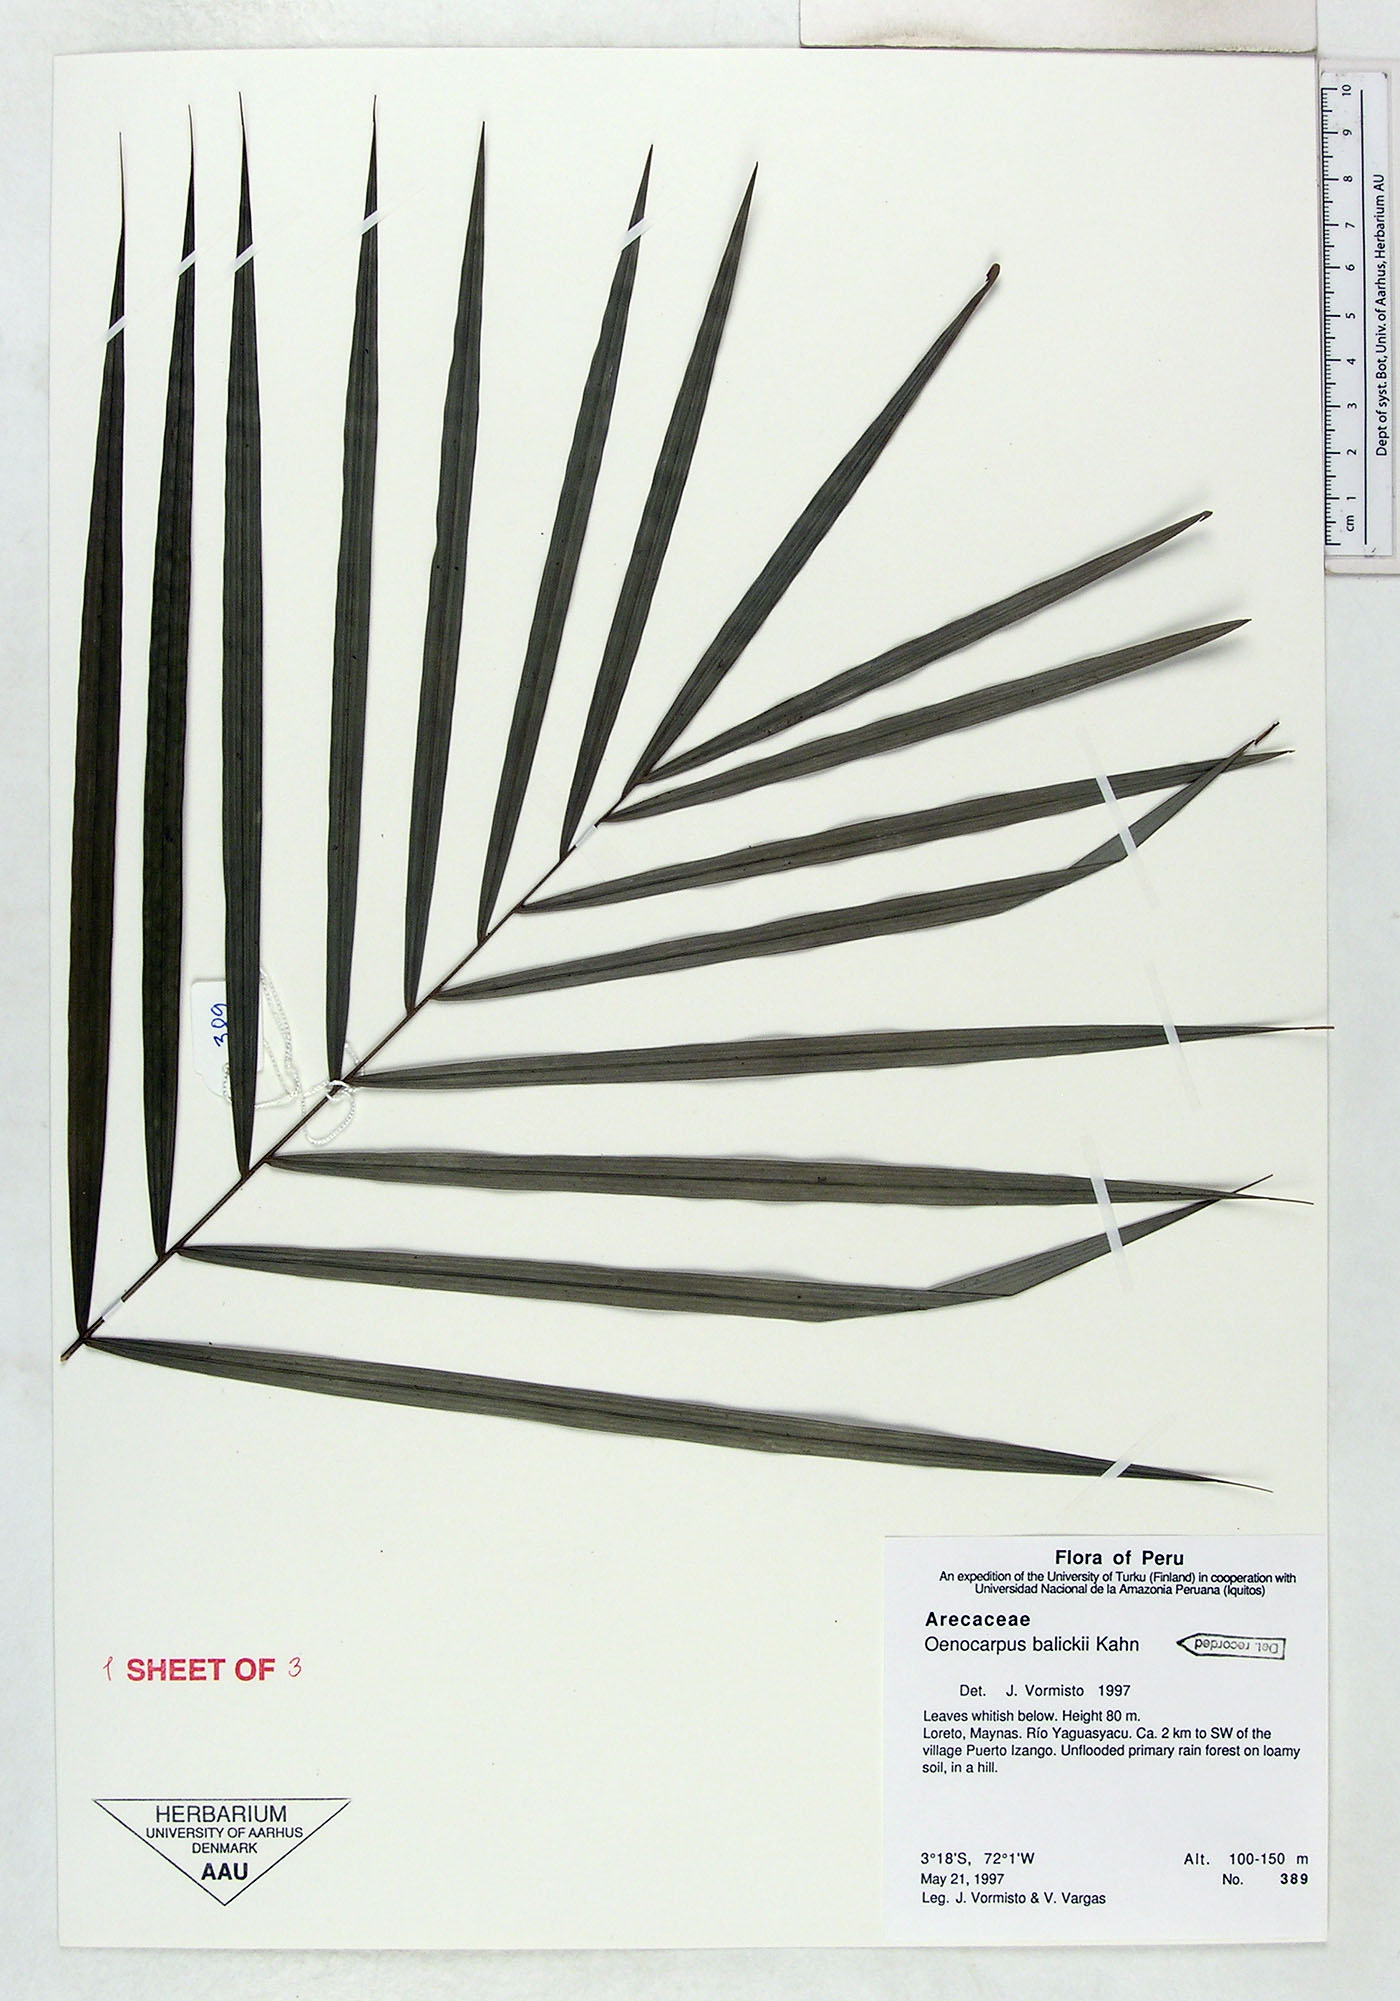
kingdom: Plantae
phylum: Tracheophyta
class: Liliopsida
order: Arecales
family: Arecaceae
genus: Oenocarpus
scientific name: Oenocarpus balickii
